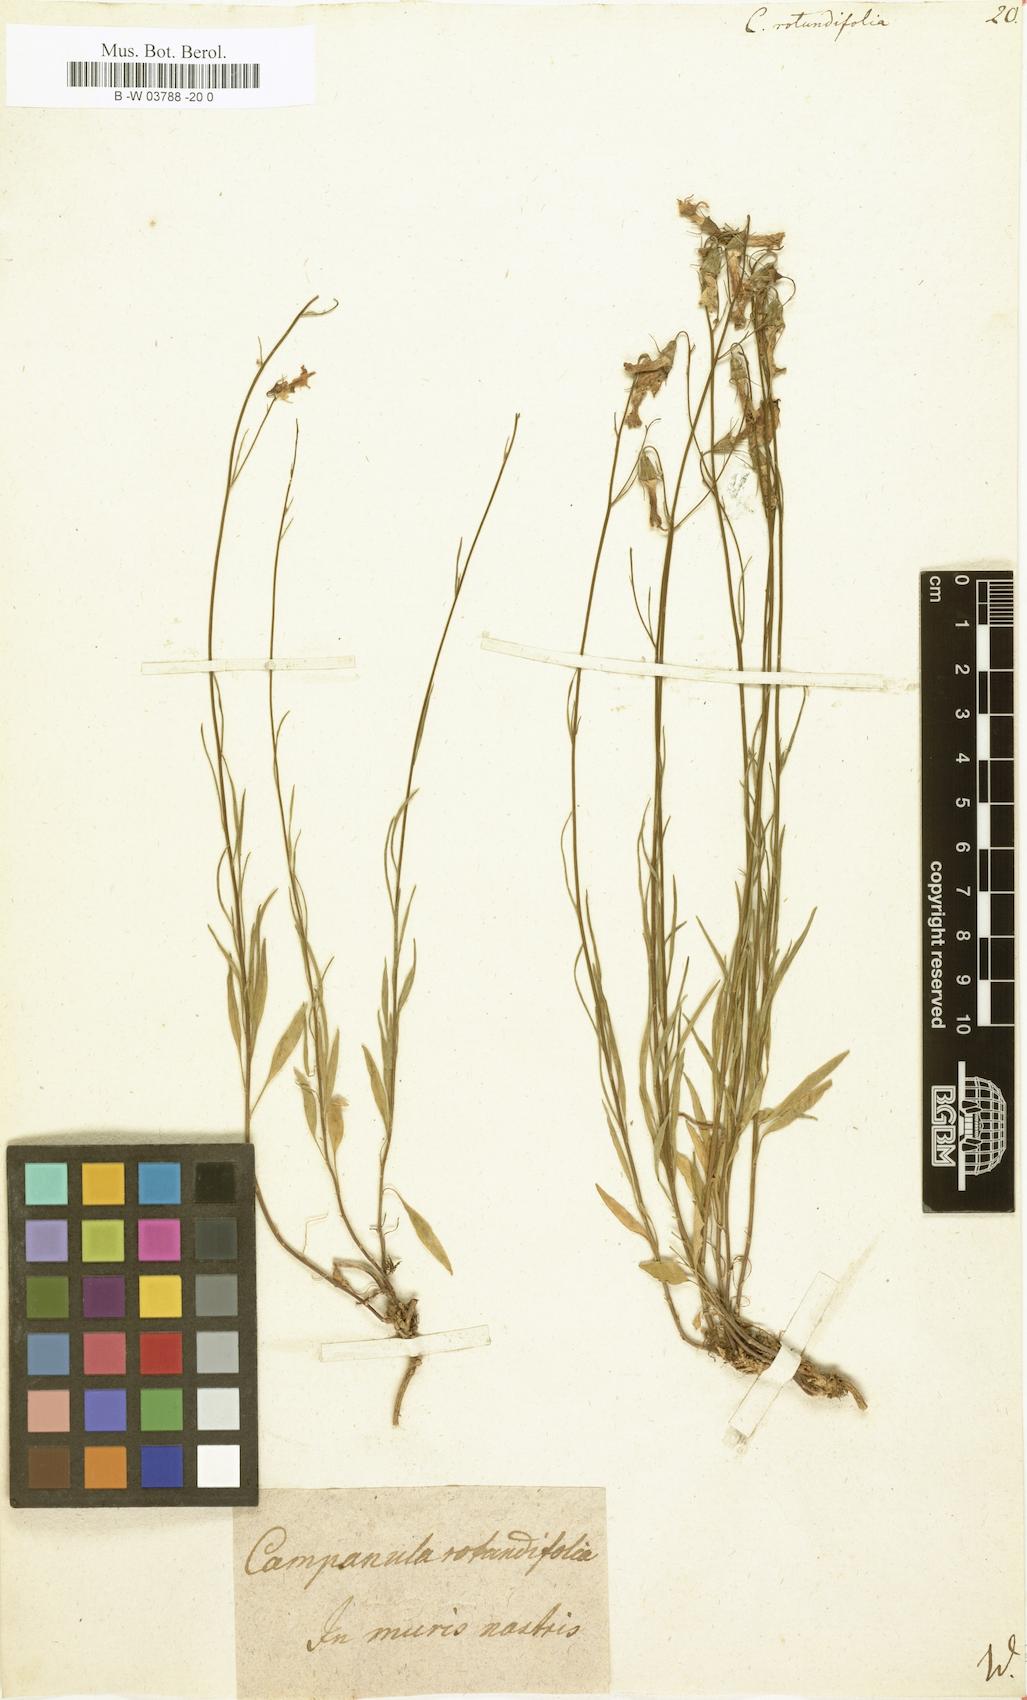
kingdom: Plantae
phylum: Tracheophyta
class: Magnoliopsida
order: Asterales
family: Campanulaceae
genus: Campanula
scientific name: Campanula rotundifolia
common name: Harebell
